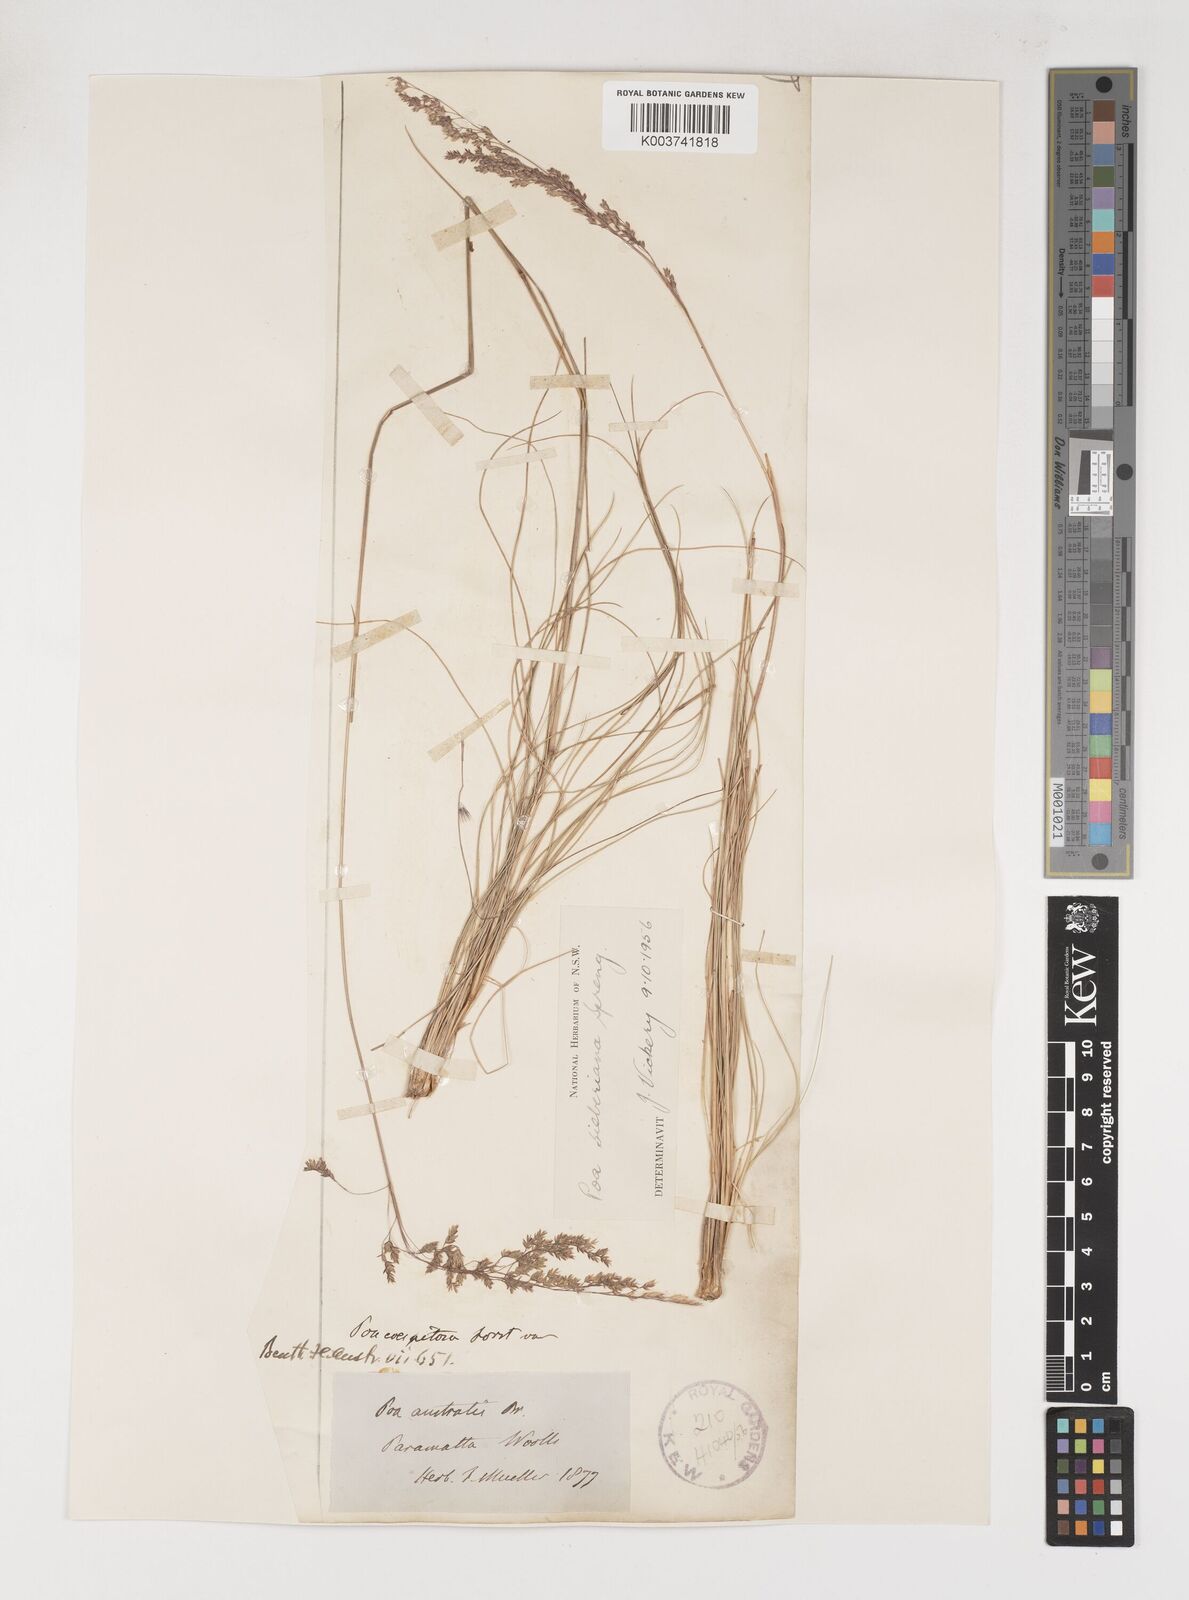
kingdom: Plantae
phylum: Tracheophyta
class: Liliopsida
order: Poales
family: Poaceae
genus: Poa
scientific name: Poa sieberiana
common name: Tussock poa
